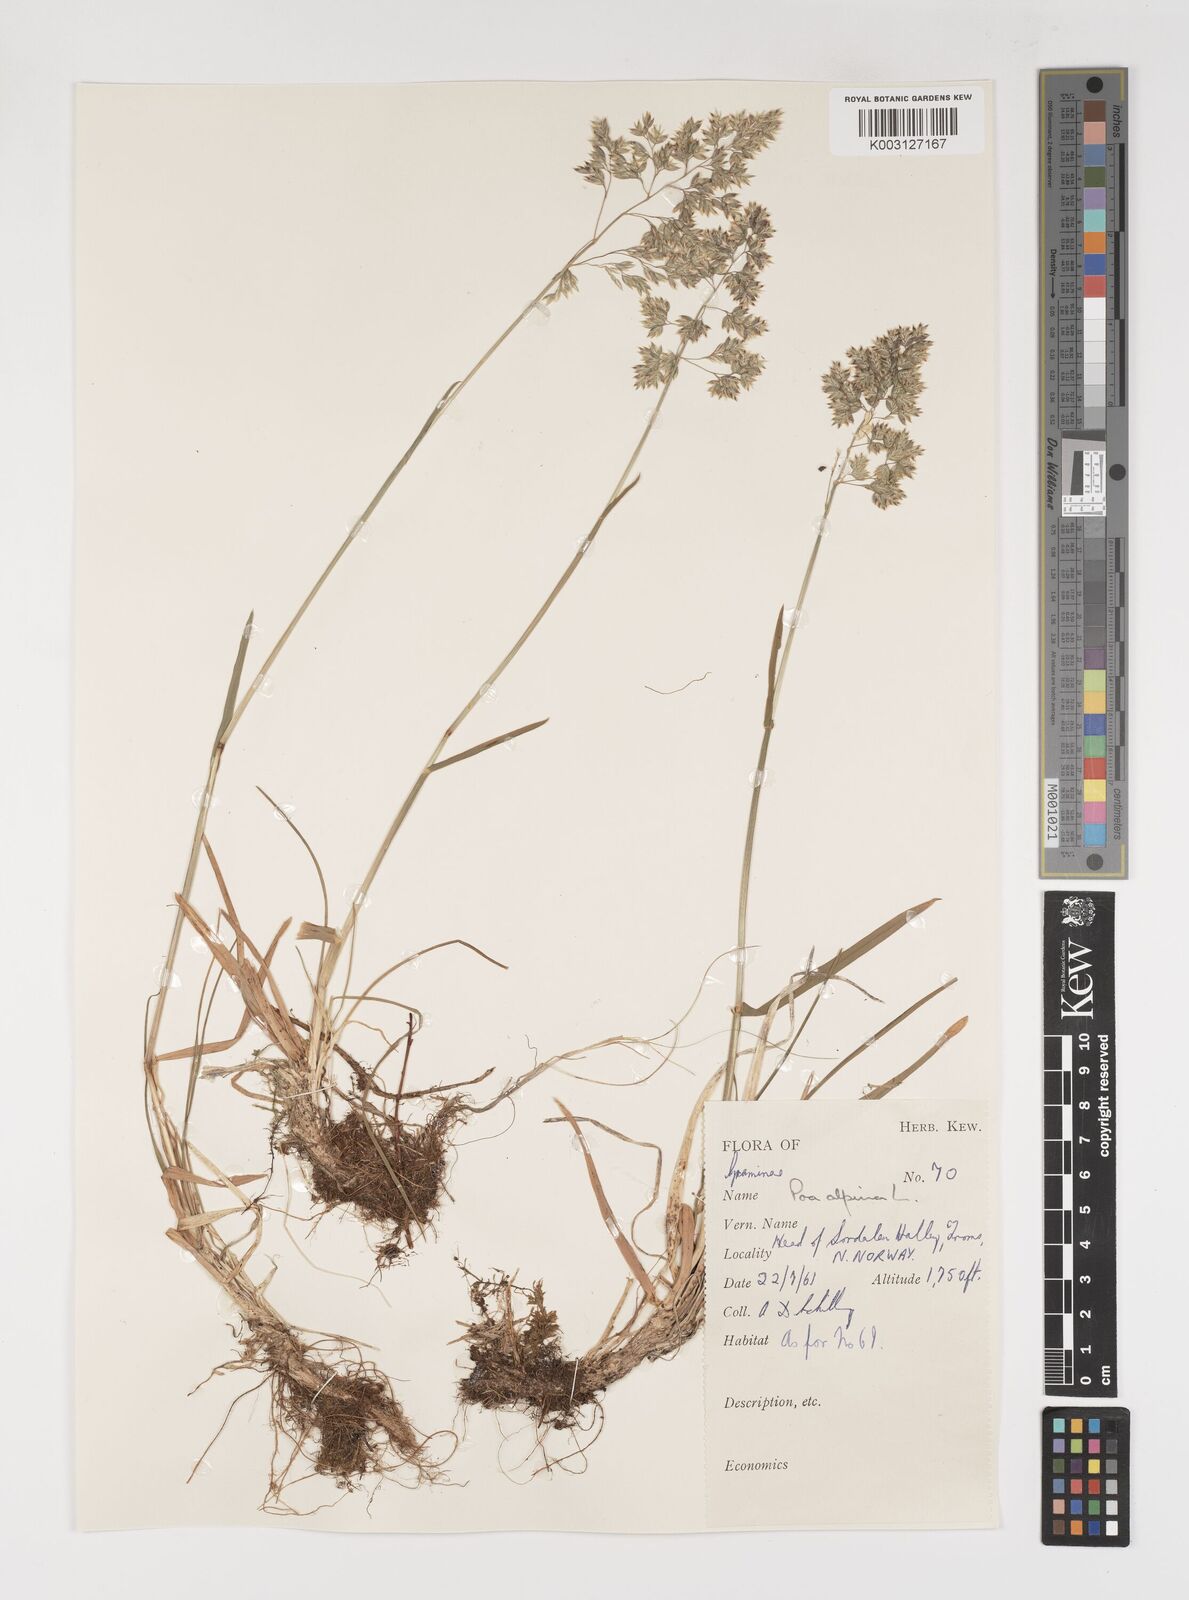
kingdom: Plantae
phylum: Tracheophyta
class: Liliopsida
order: Poales
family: Poaceae
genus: Poa
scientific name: Poa alpina
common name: Alpine bluegrass
